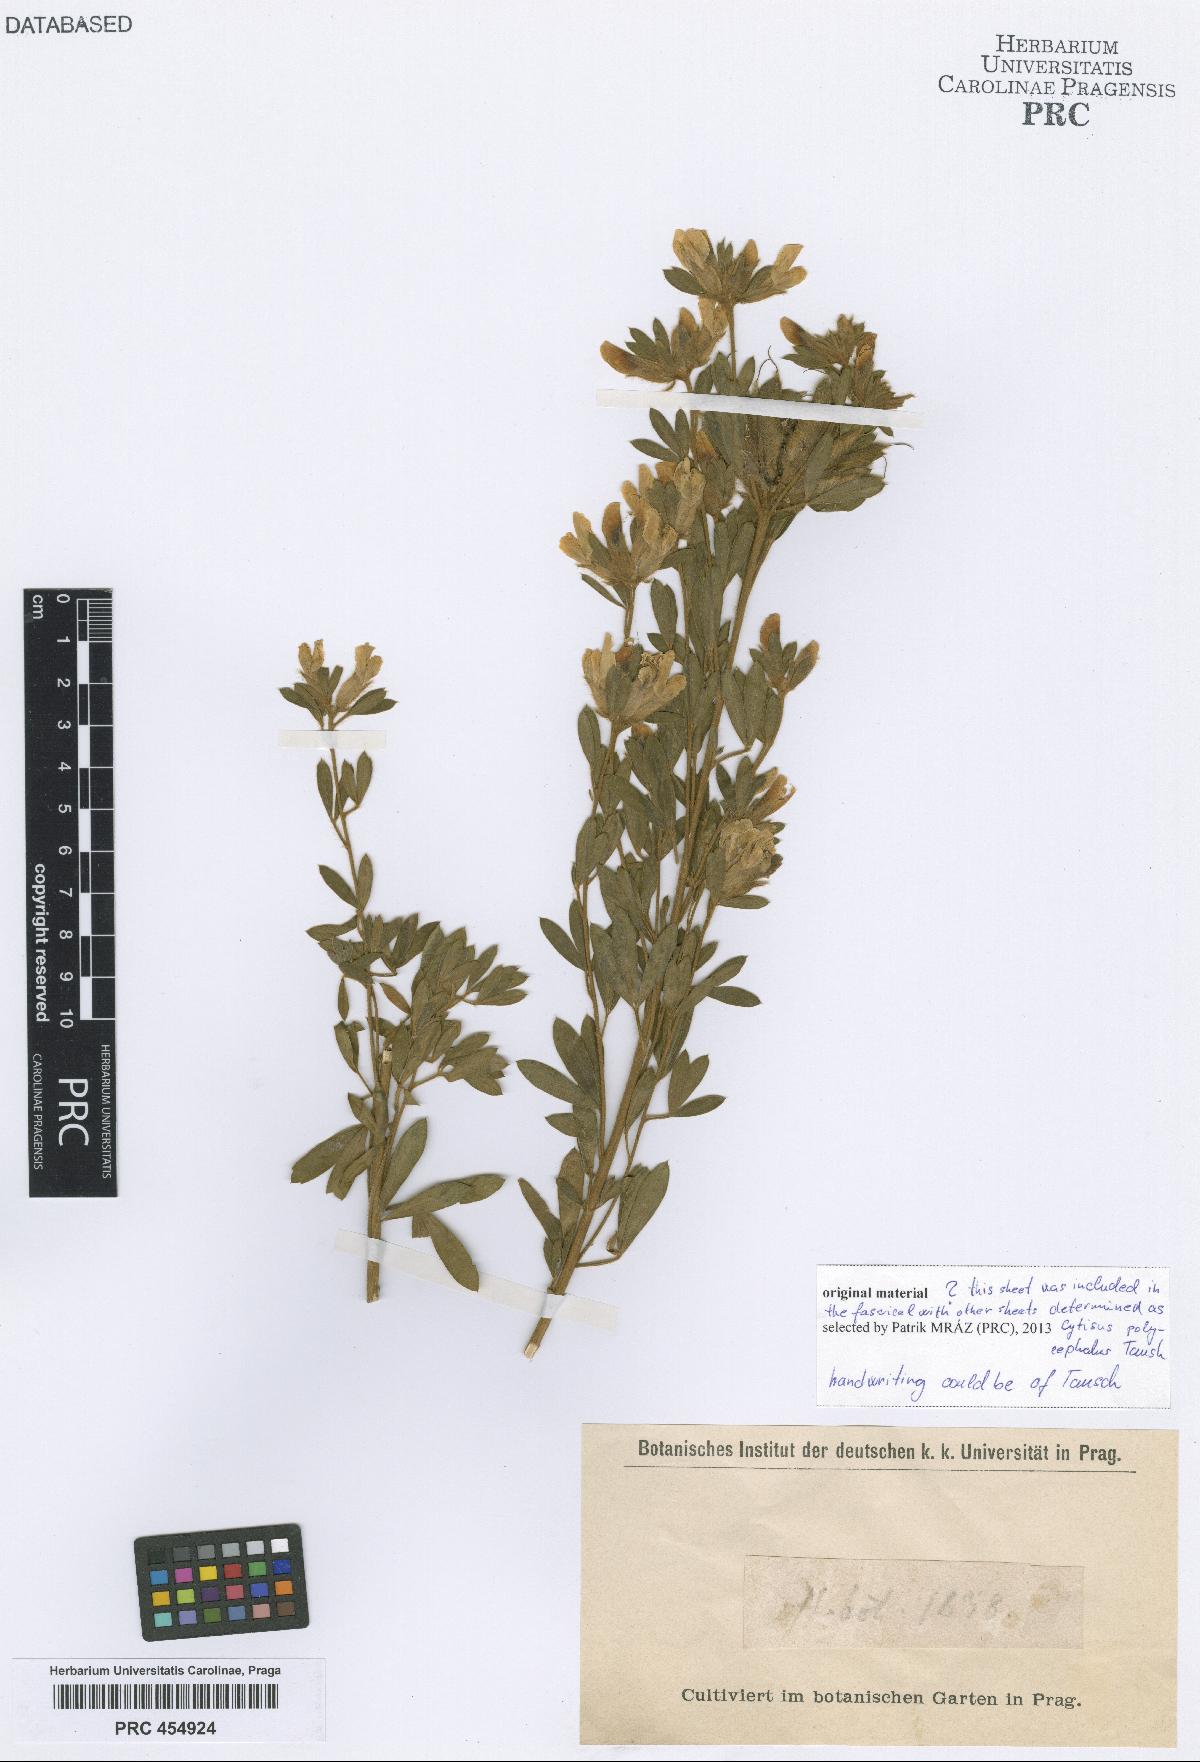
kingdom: Plantae
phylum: Tracheophyta
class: Magnoliopsida
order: Fabales
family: Fabaceae
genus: Chamaecytisus
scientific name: Chamaecytisus albus
